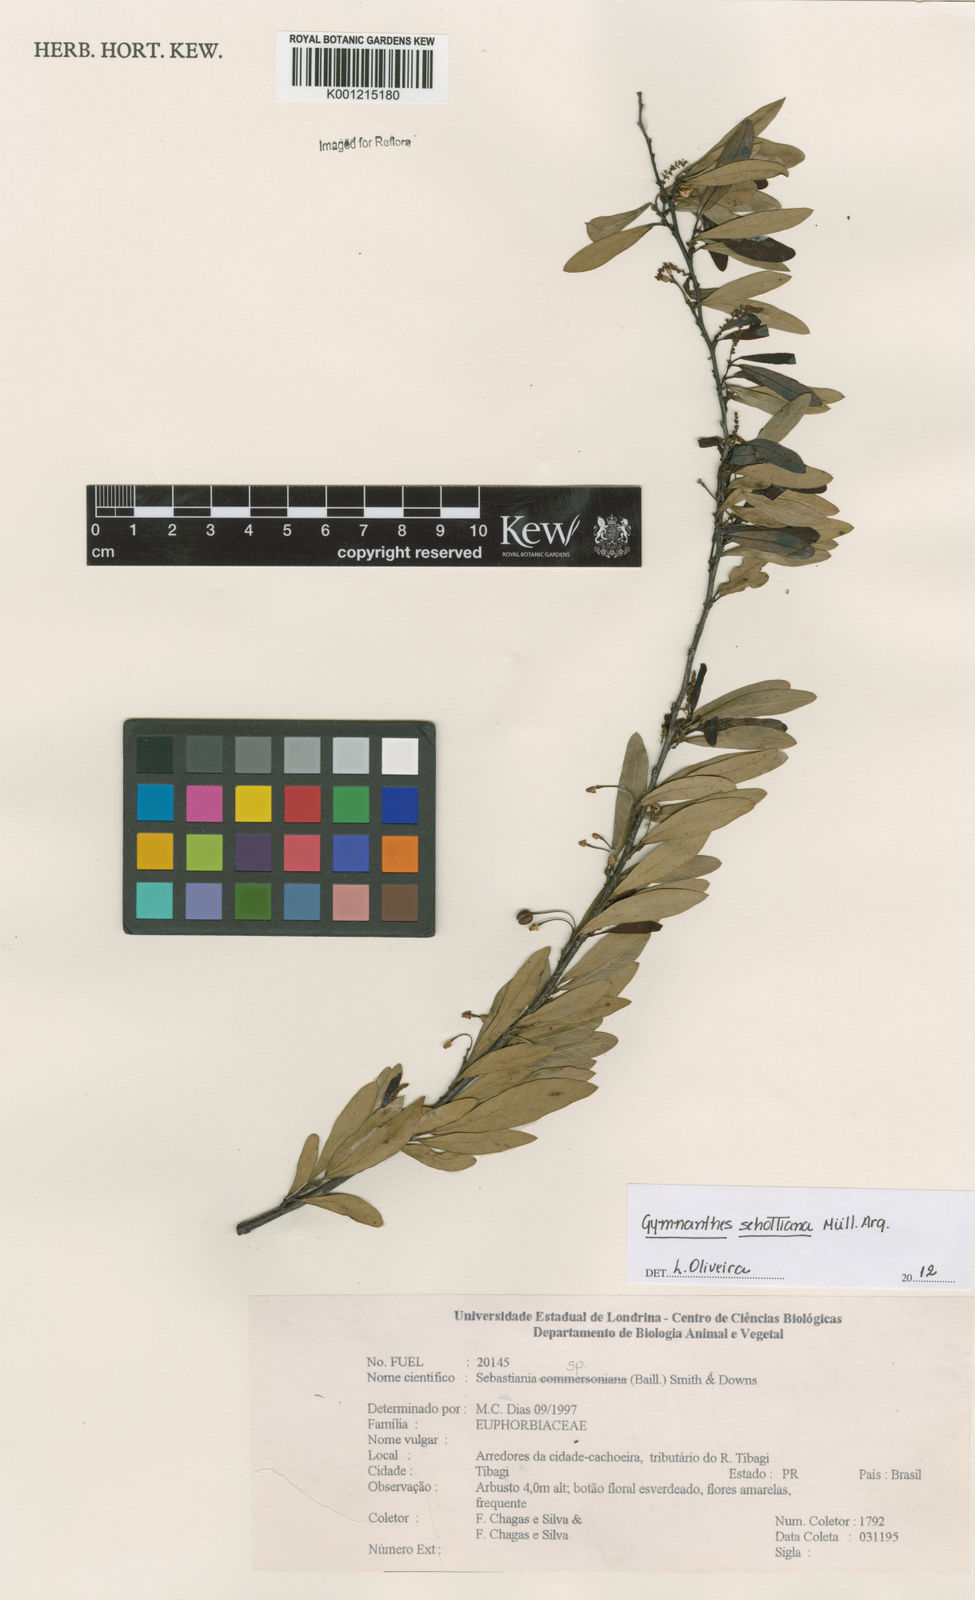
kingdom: Plantae
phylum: Tracheophyta
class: Magnoliopsida
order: Malpighiales
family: Euphorbiaceae
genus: Gymnanthes
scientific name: Gymnanthes
